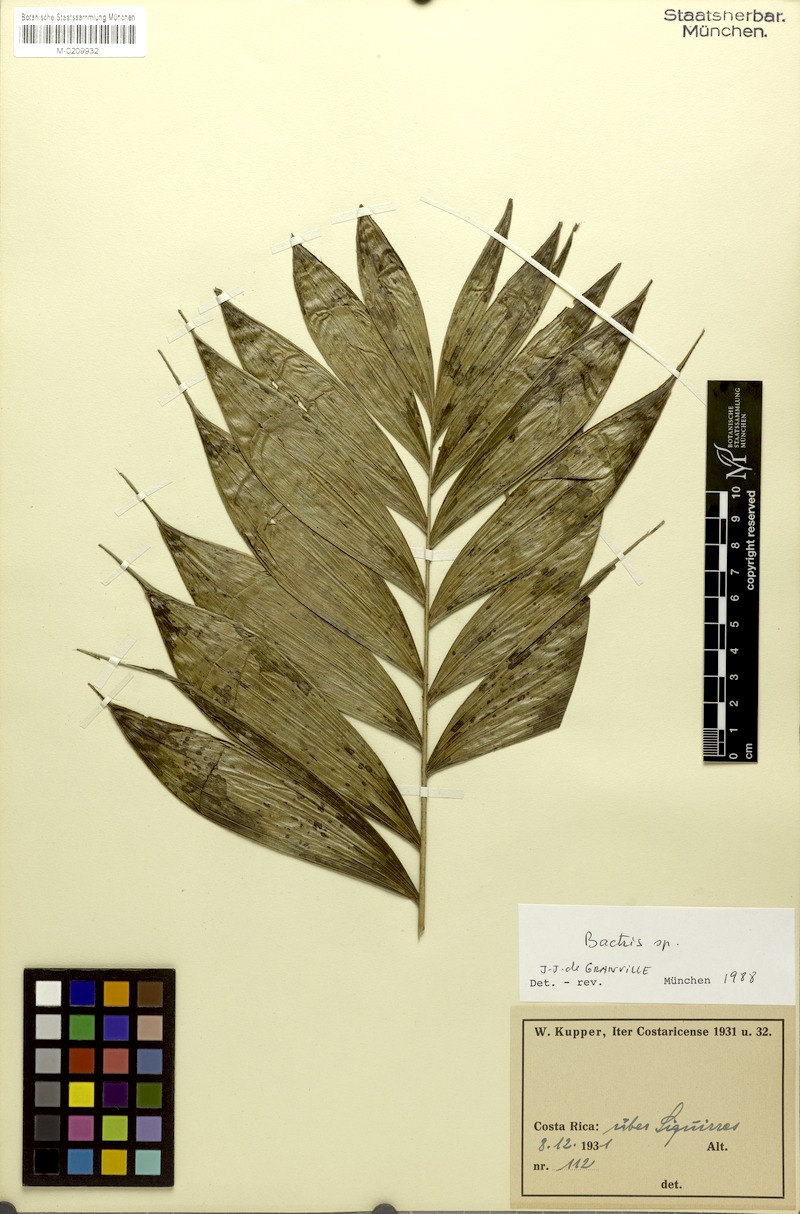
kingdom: Plantae
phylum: Tracheophyta
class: Liliopsida
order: Arecales
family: Arecaceae
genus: Bactris
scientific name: Bactris
